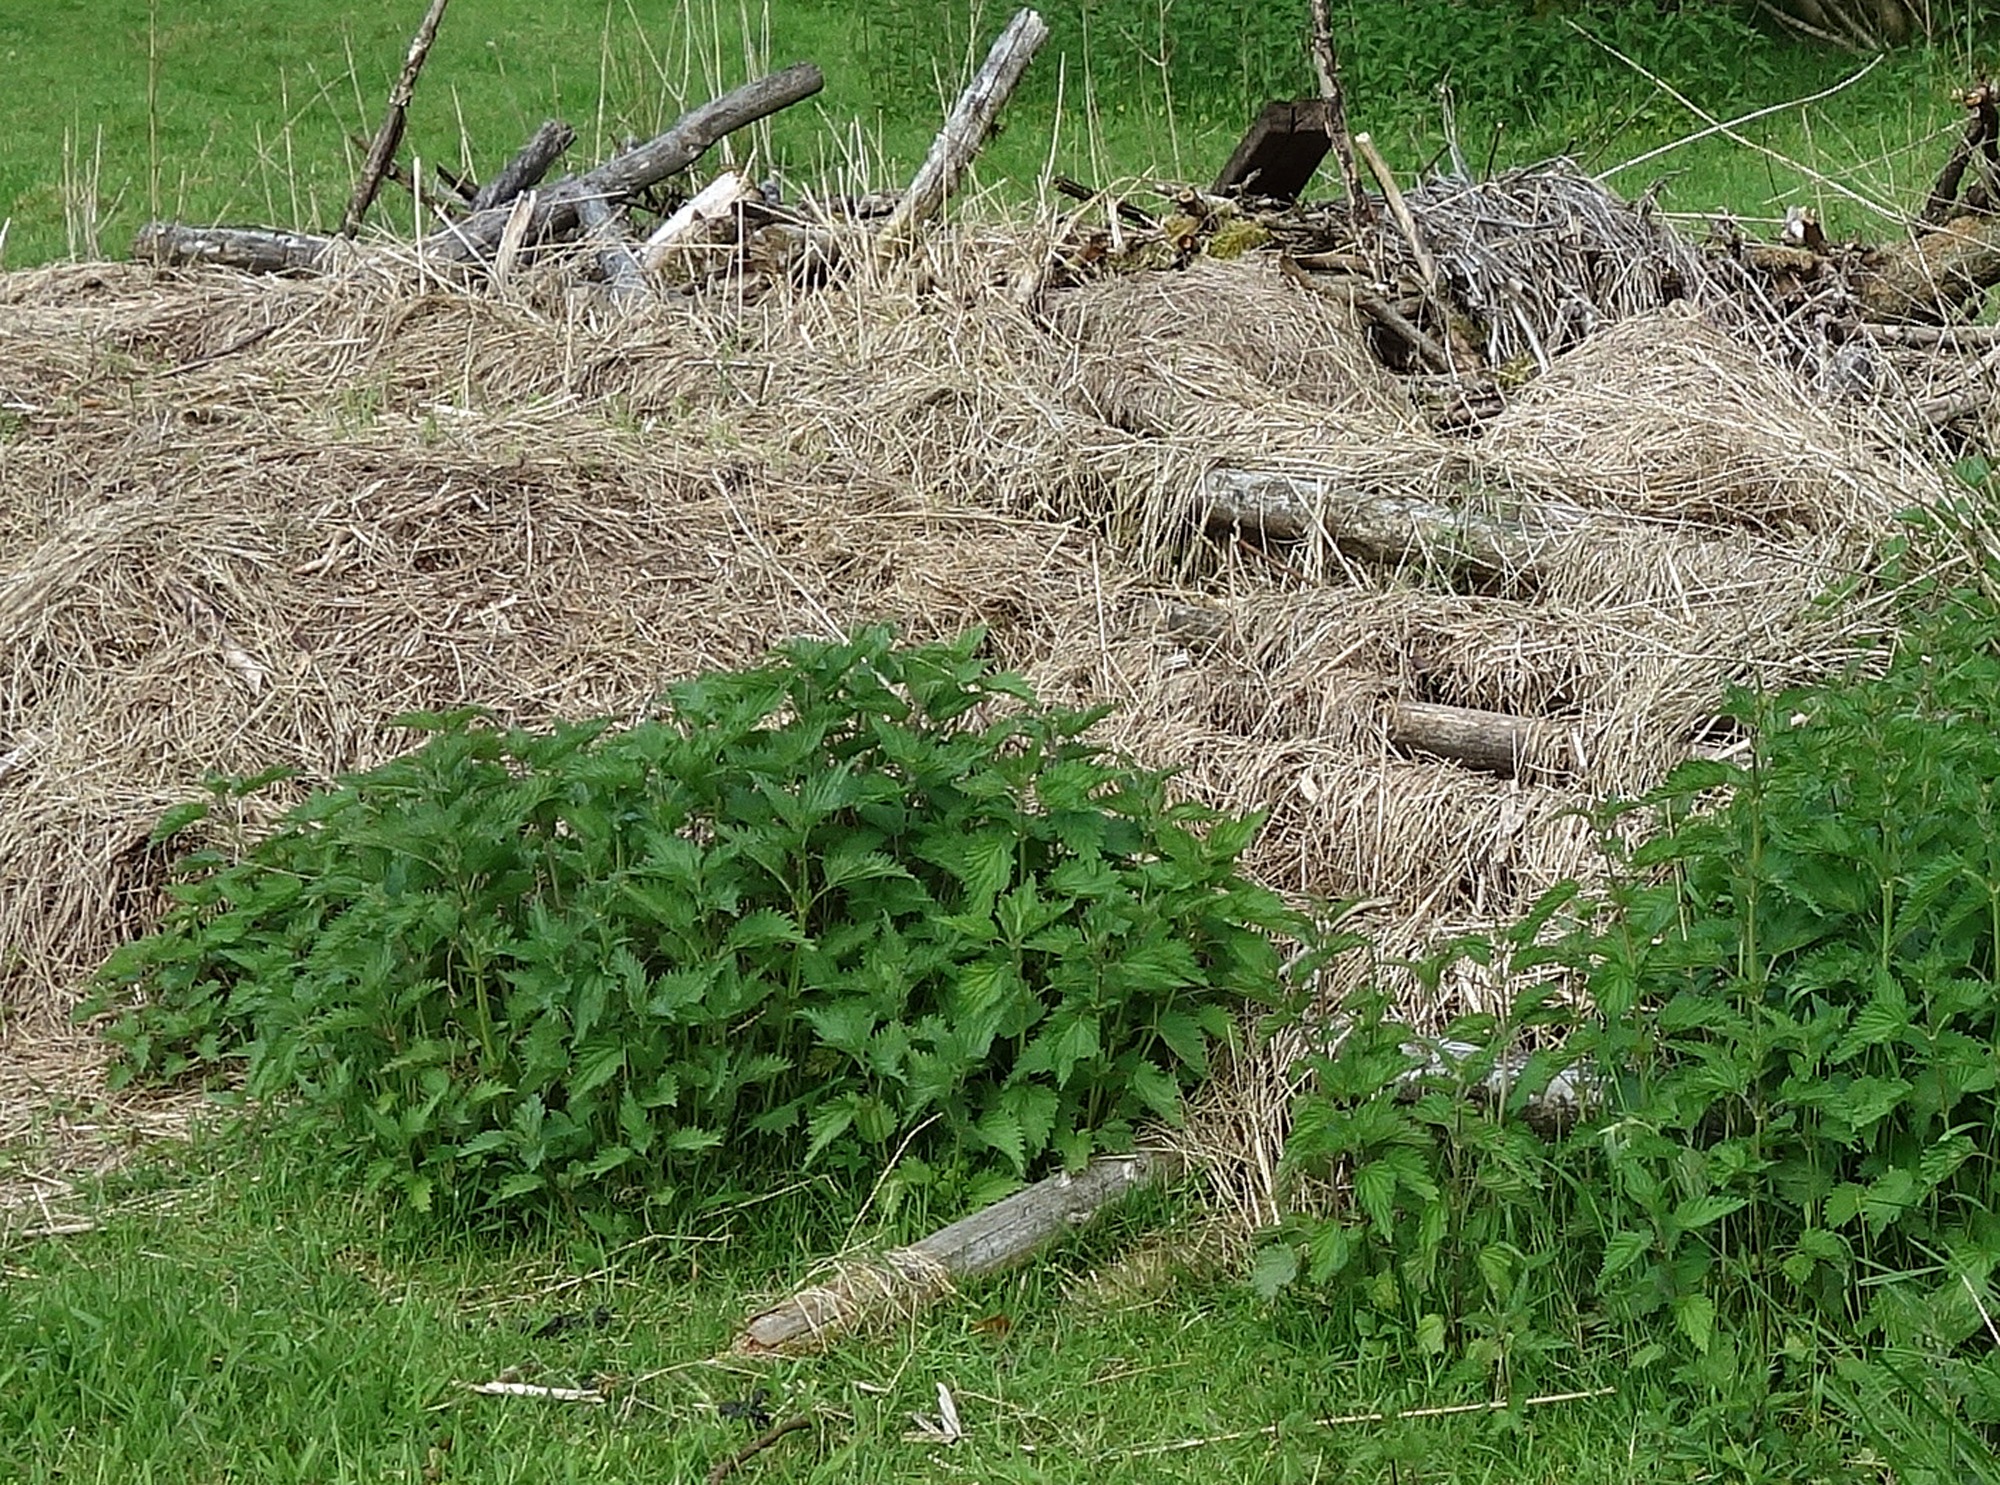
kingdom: Plantae
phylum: Tracheophyta
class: Magnoliopsida
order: Rosales
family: Urticaceae
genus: Urtica
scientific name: Urtica dioica
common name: Stor nælde
